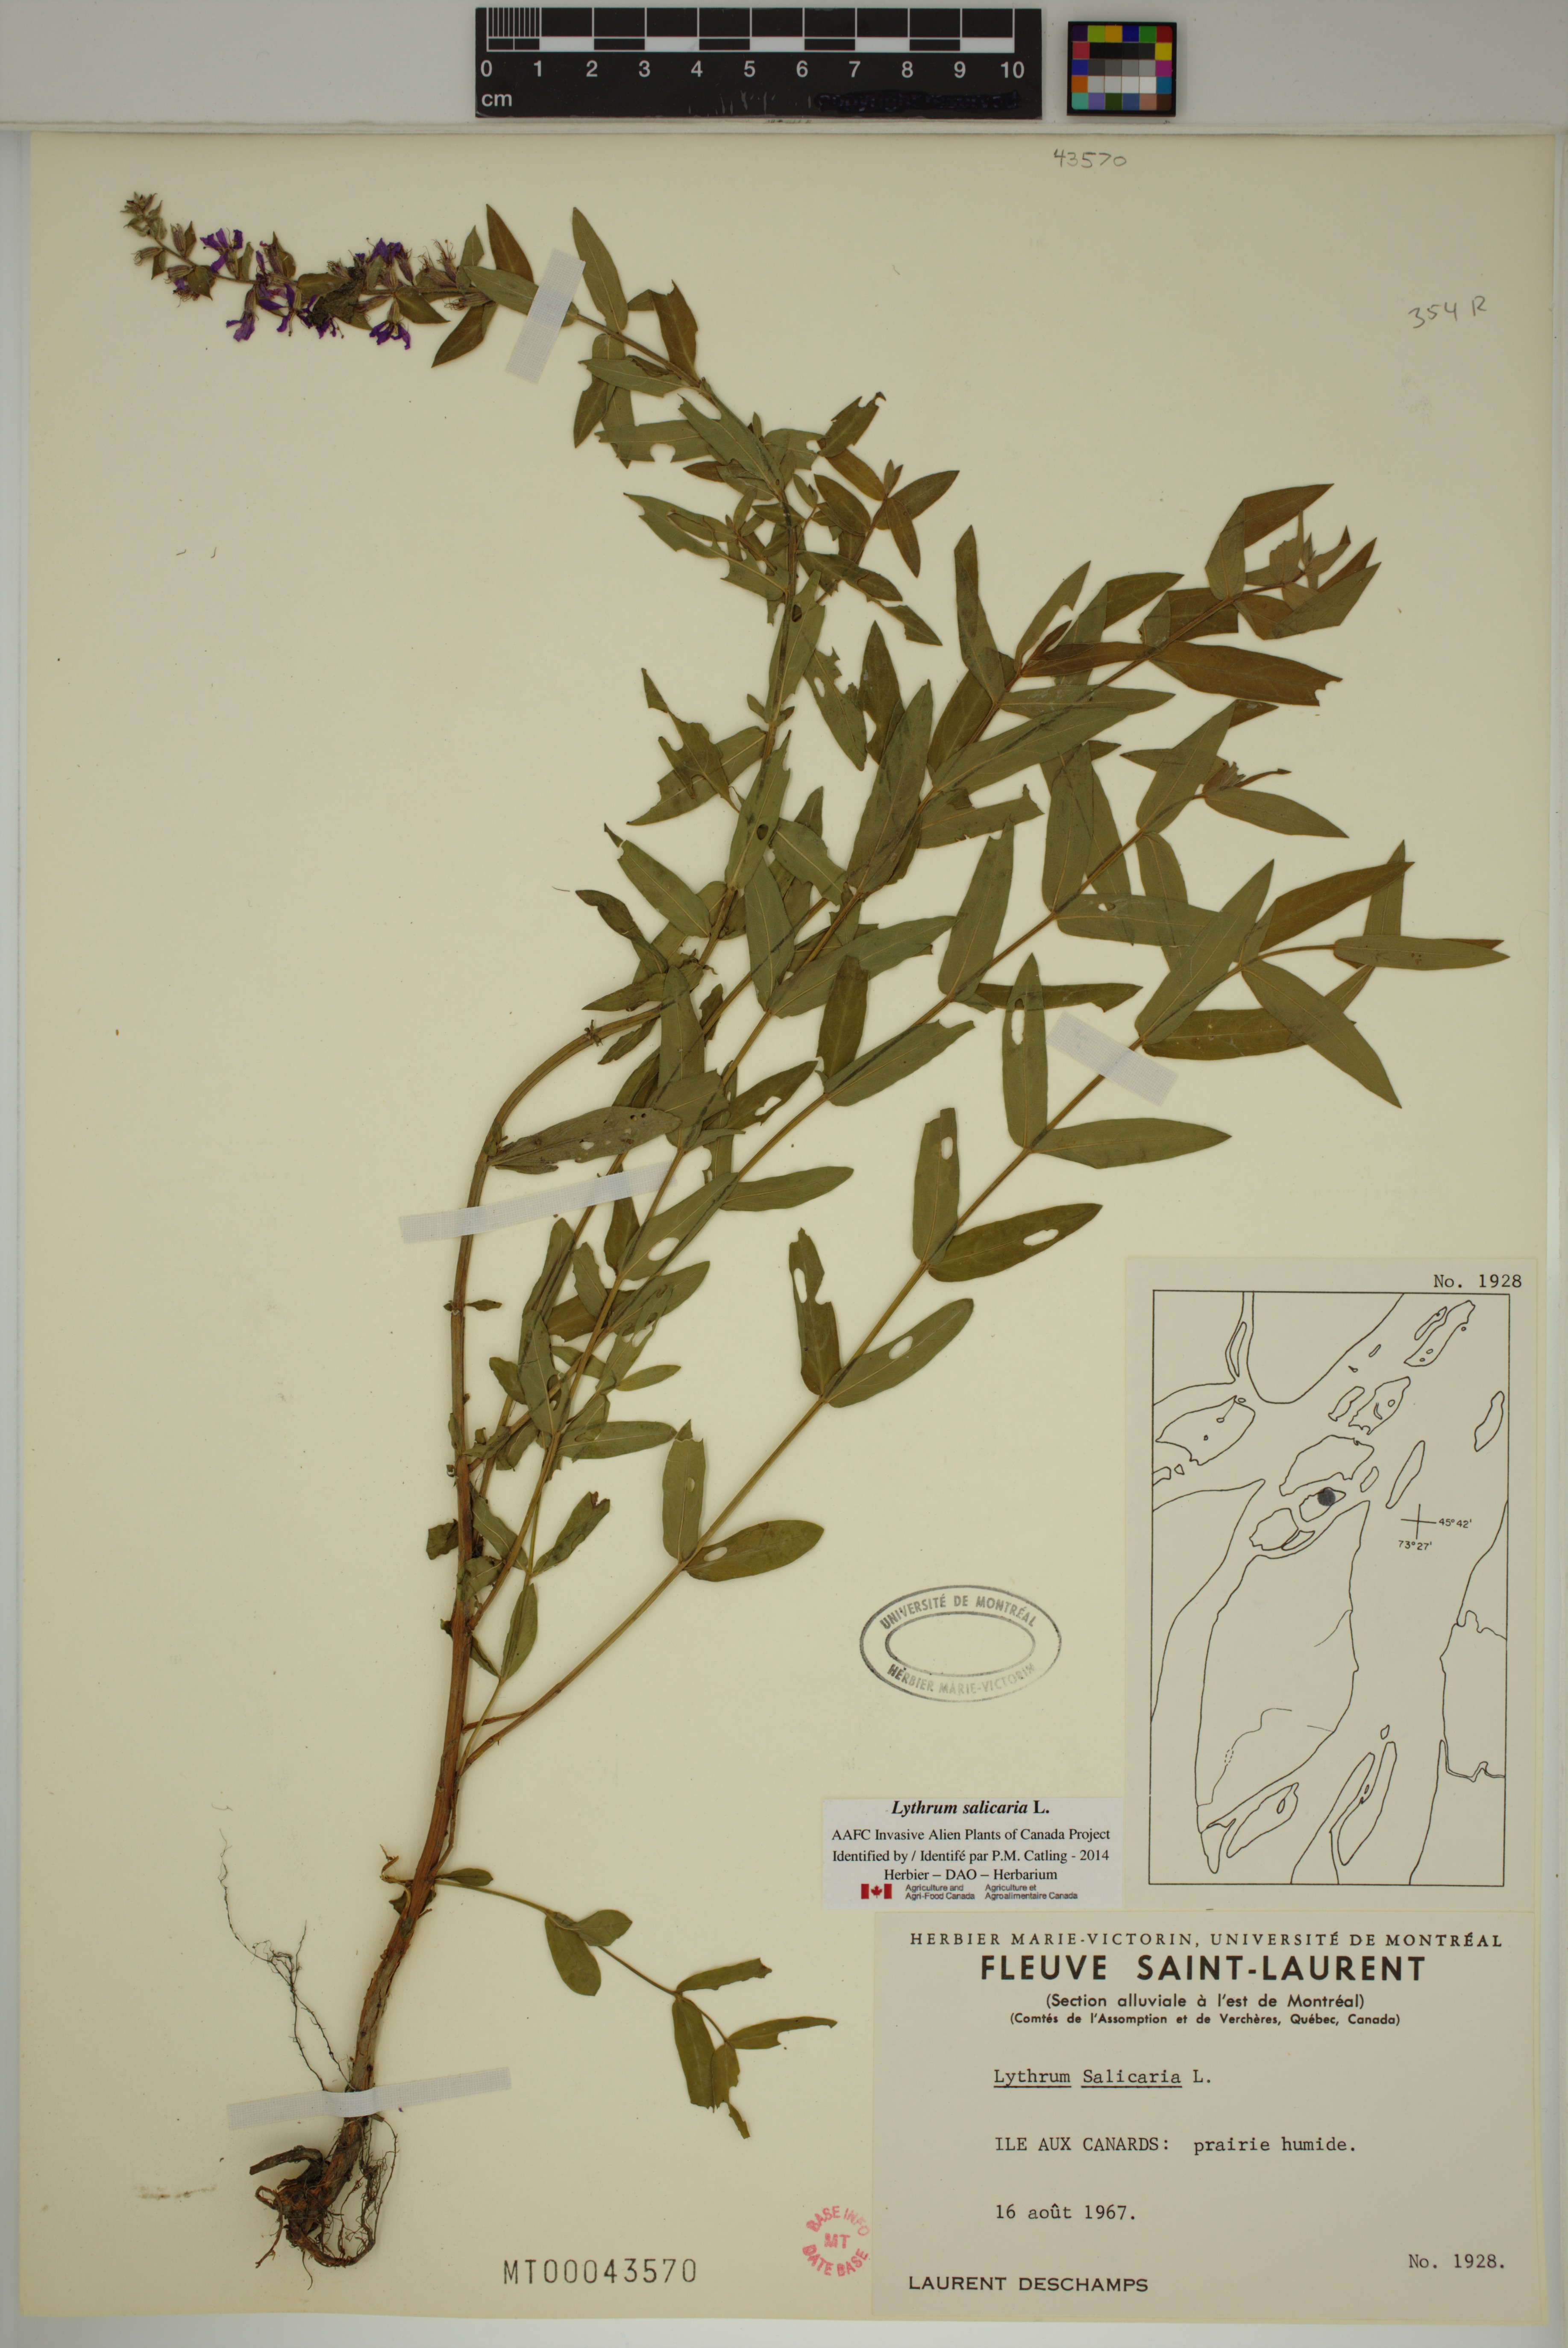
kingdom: Plantae
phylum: Tracheophyta
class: Magnoliopsida
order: Myrtales
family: Lythraceae
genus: Lythrum
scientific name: Lythrum salicaria
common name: Purple loosestrife
